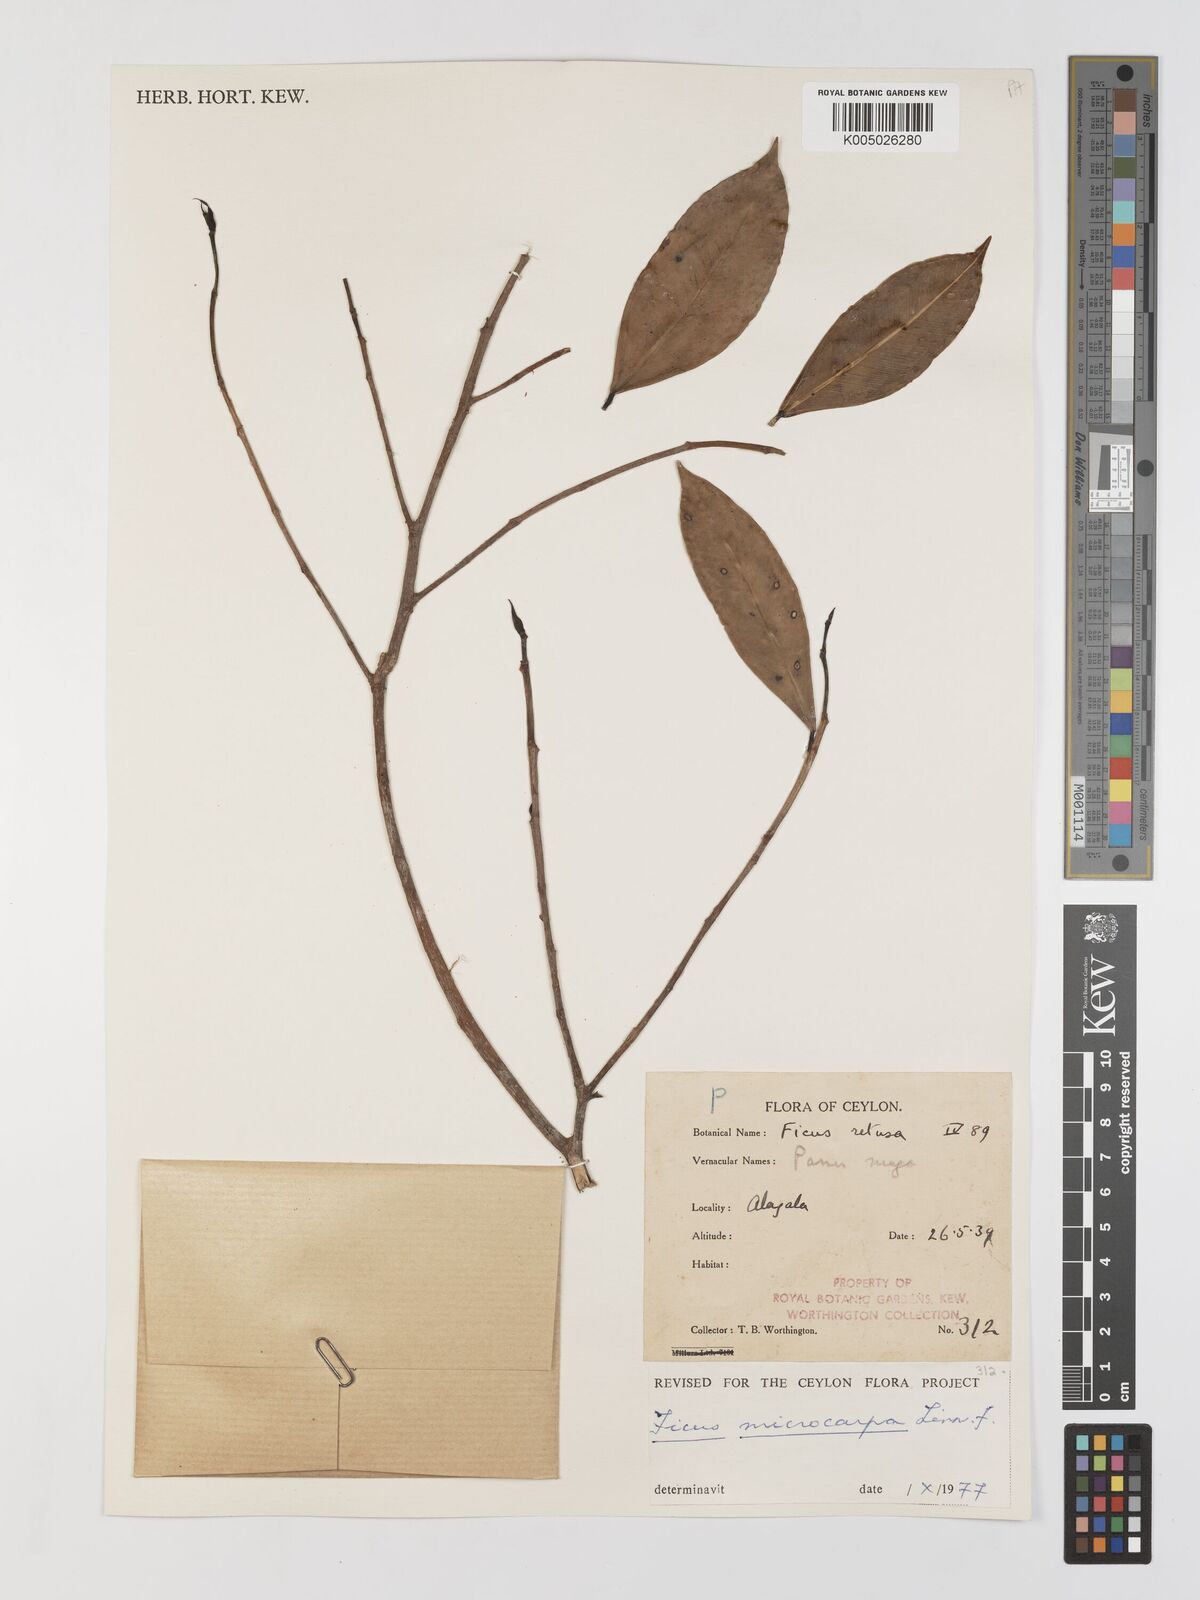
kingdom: Plantae
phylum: Tracheophyta
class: Magnoliopsida
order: Rosales
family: Moraceae
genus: Ficus
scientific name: Ficus
